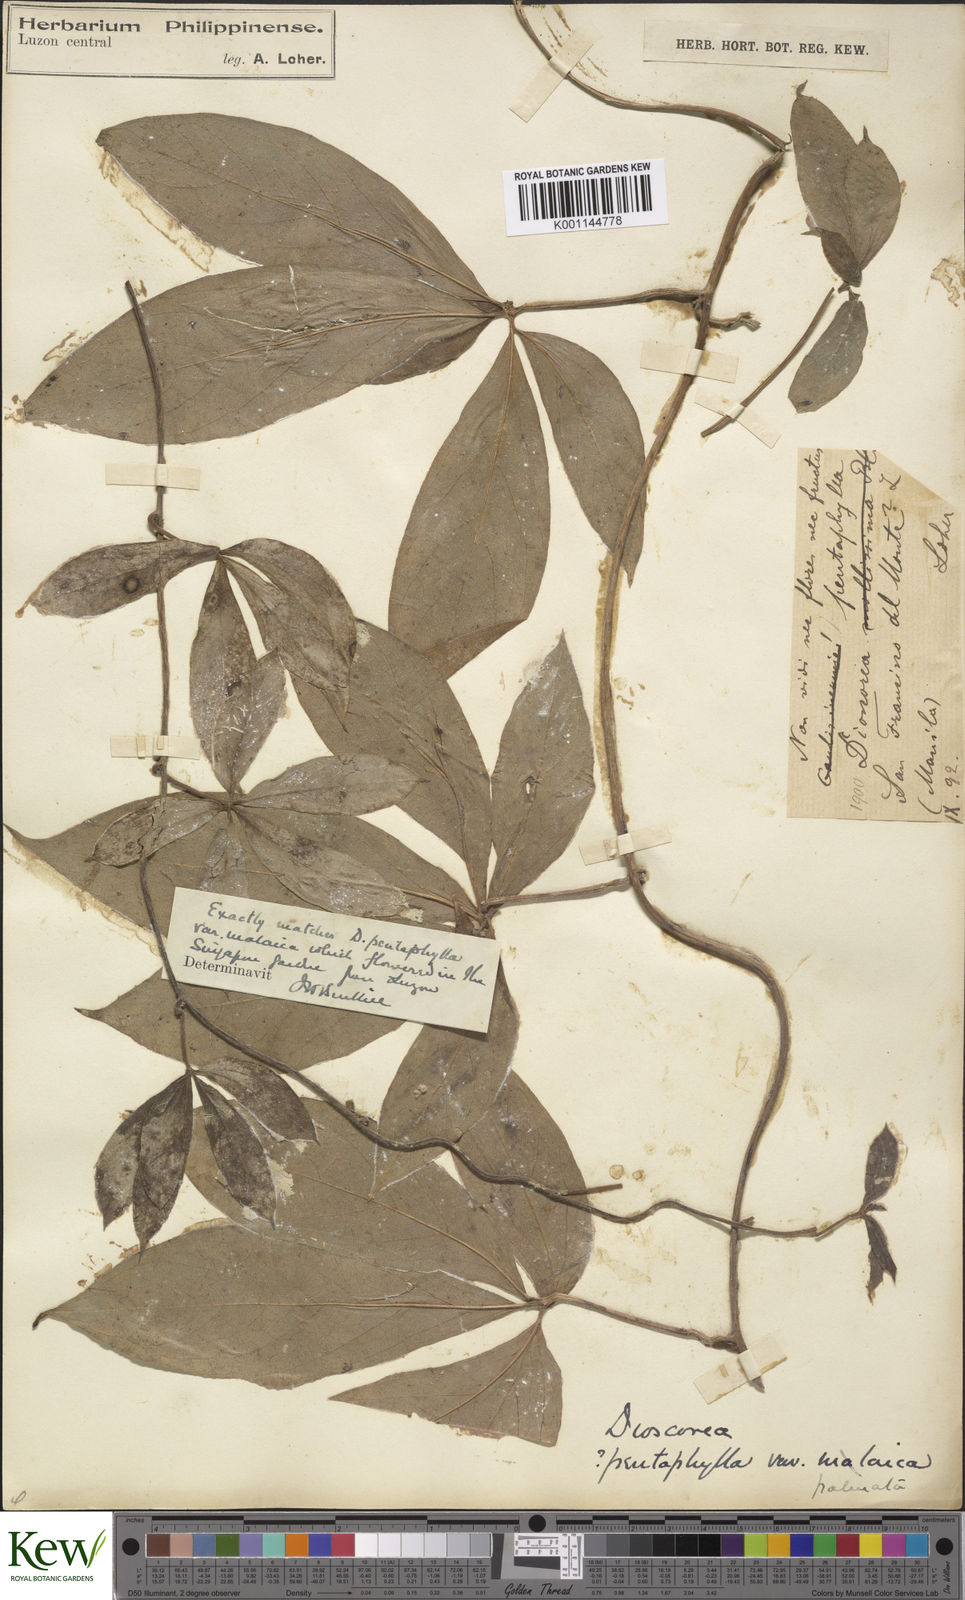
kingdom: Plantae
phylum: Tracheophyta
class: Liliopsida
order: Dioscoreales
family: Dioscoreaceae
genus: Dioscorea
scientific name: Dioscorea pentaphylla
